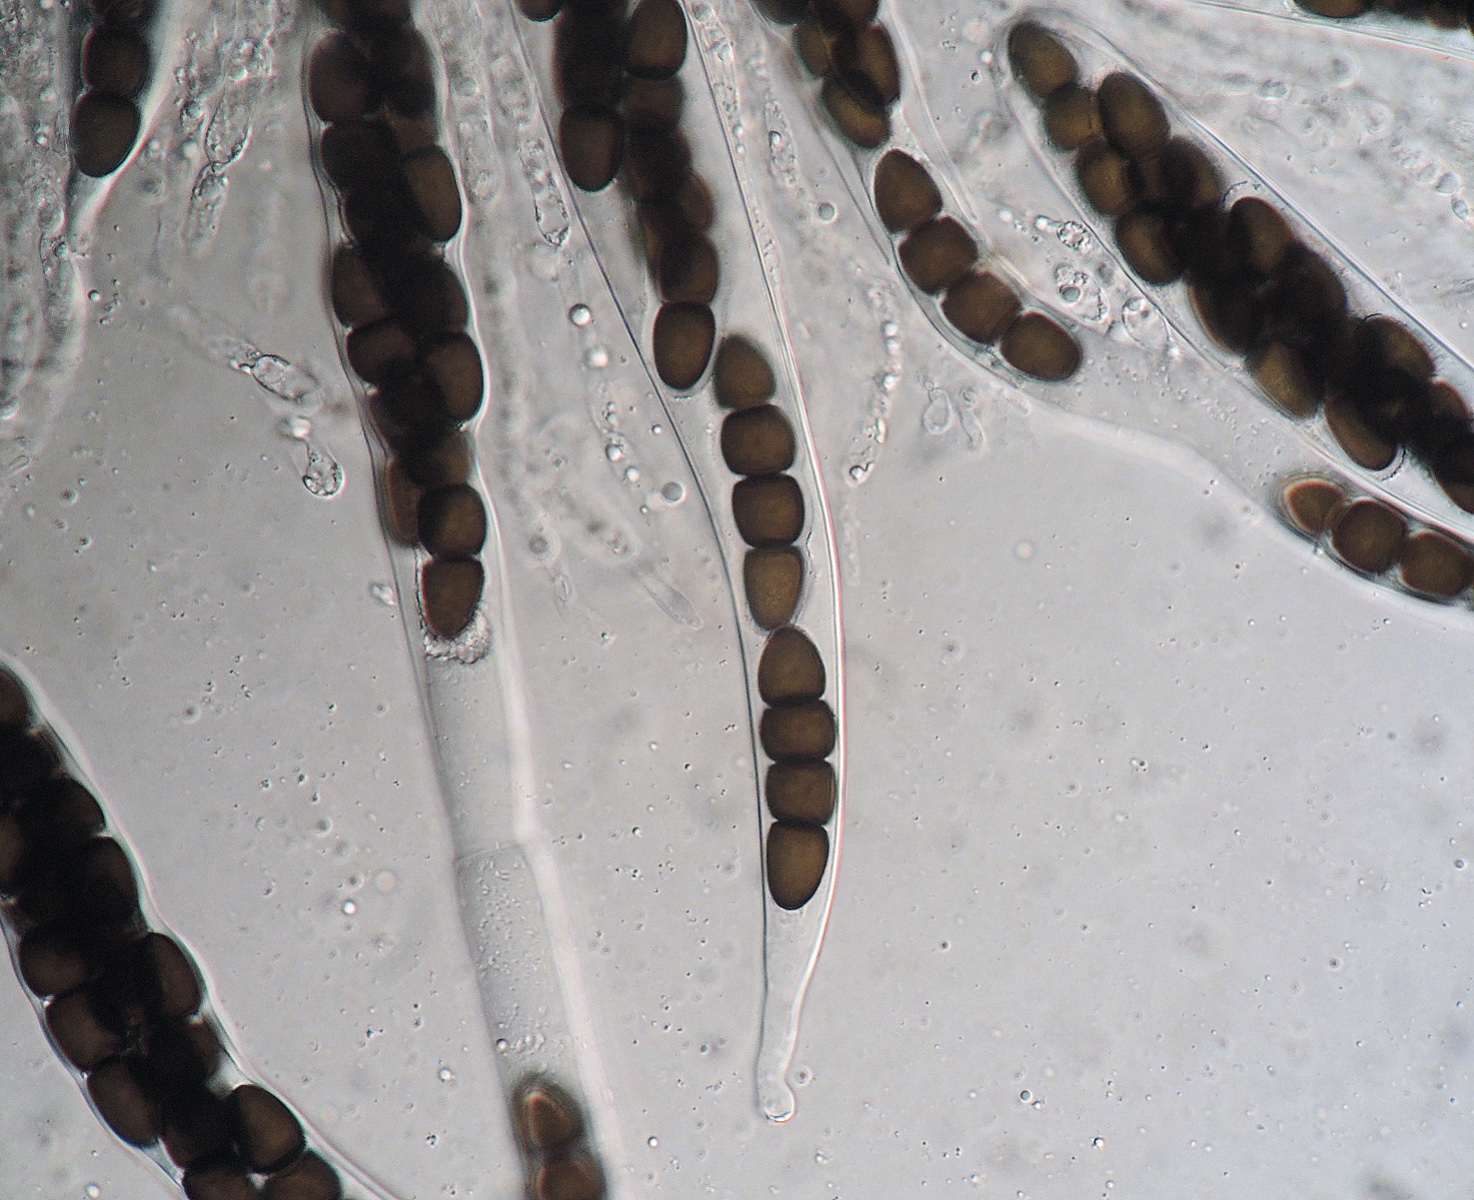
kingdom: Fungi
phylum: Ascomycota
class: Dothideomycetes
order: Pleosporales
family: Sporormiaceae
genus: Sporormiella
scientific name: Sporormiella megalospora
